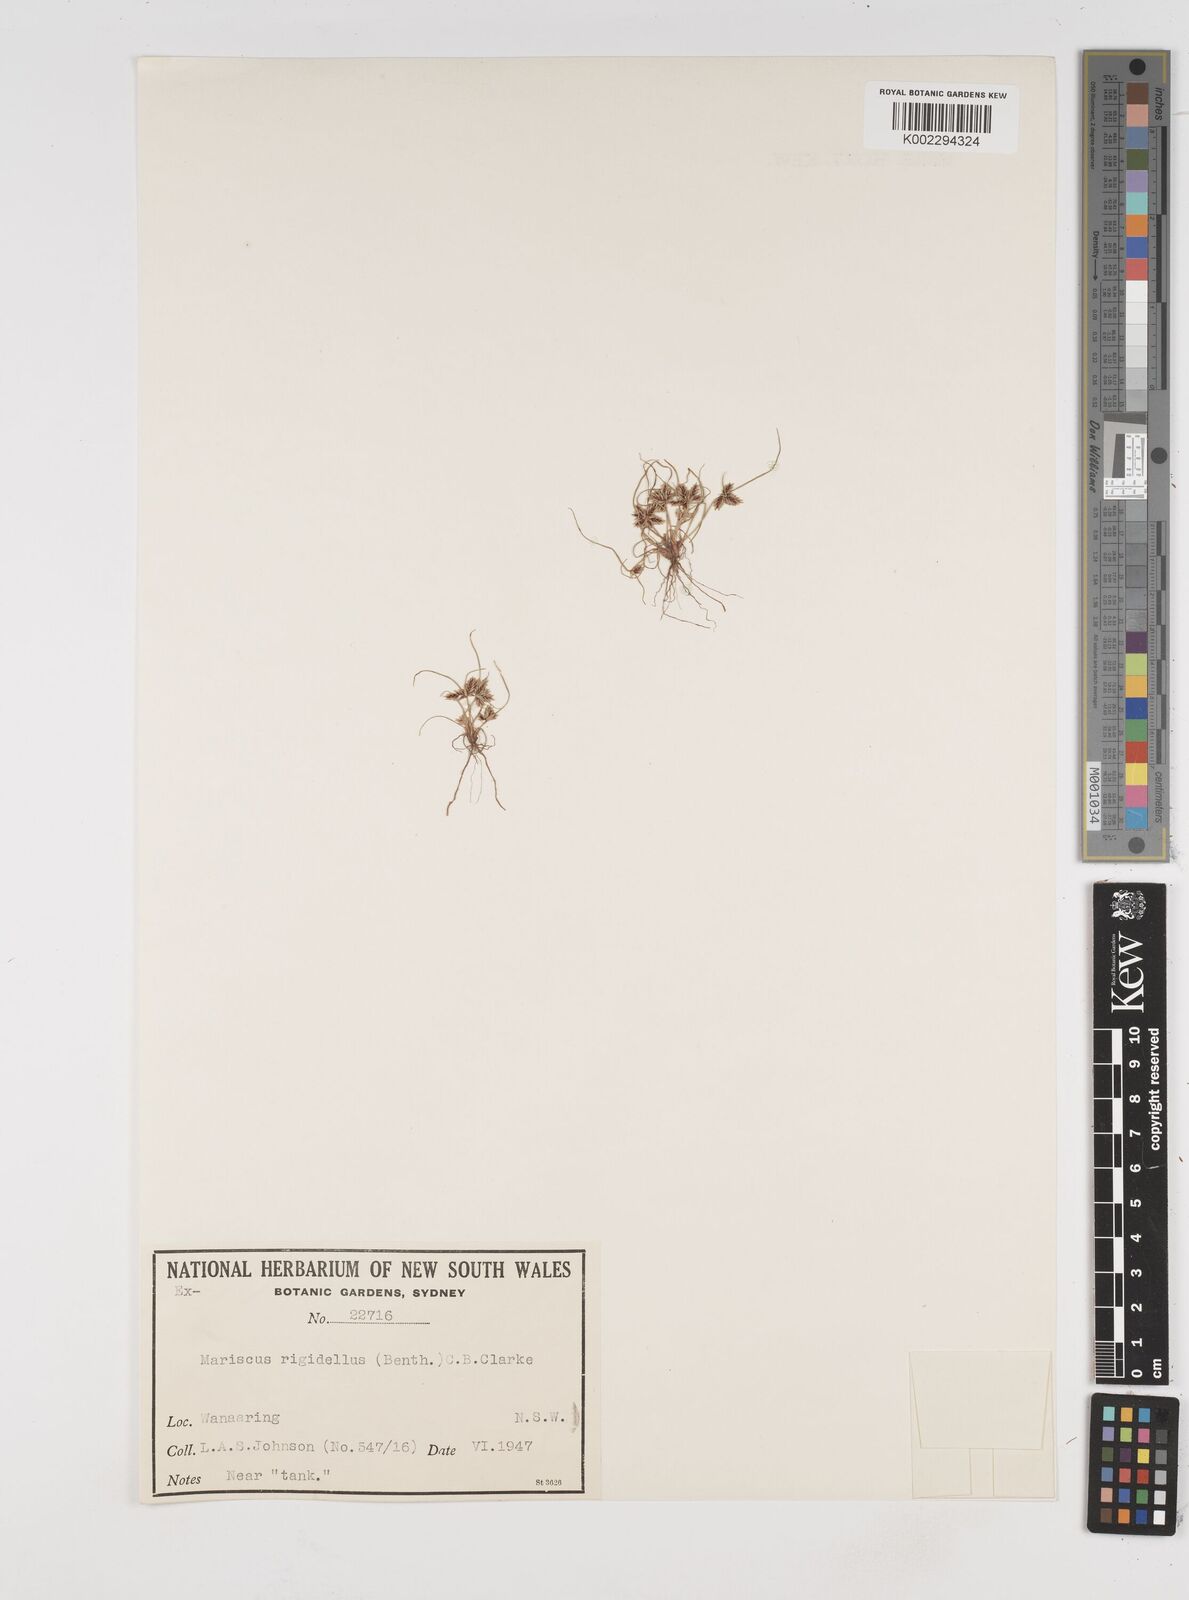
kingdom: Plantae
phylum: Tracheophyta
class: Liliopsida
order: Poales
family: Cyperaceae
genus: Cyperus
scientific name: Cyperus rigidellus
